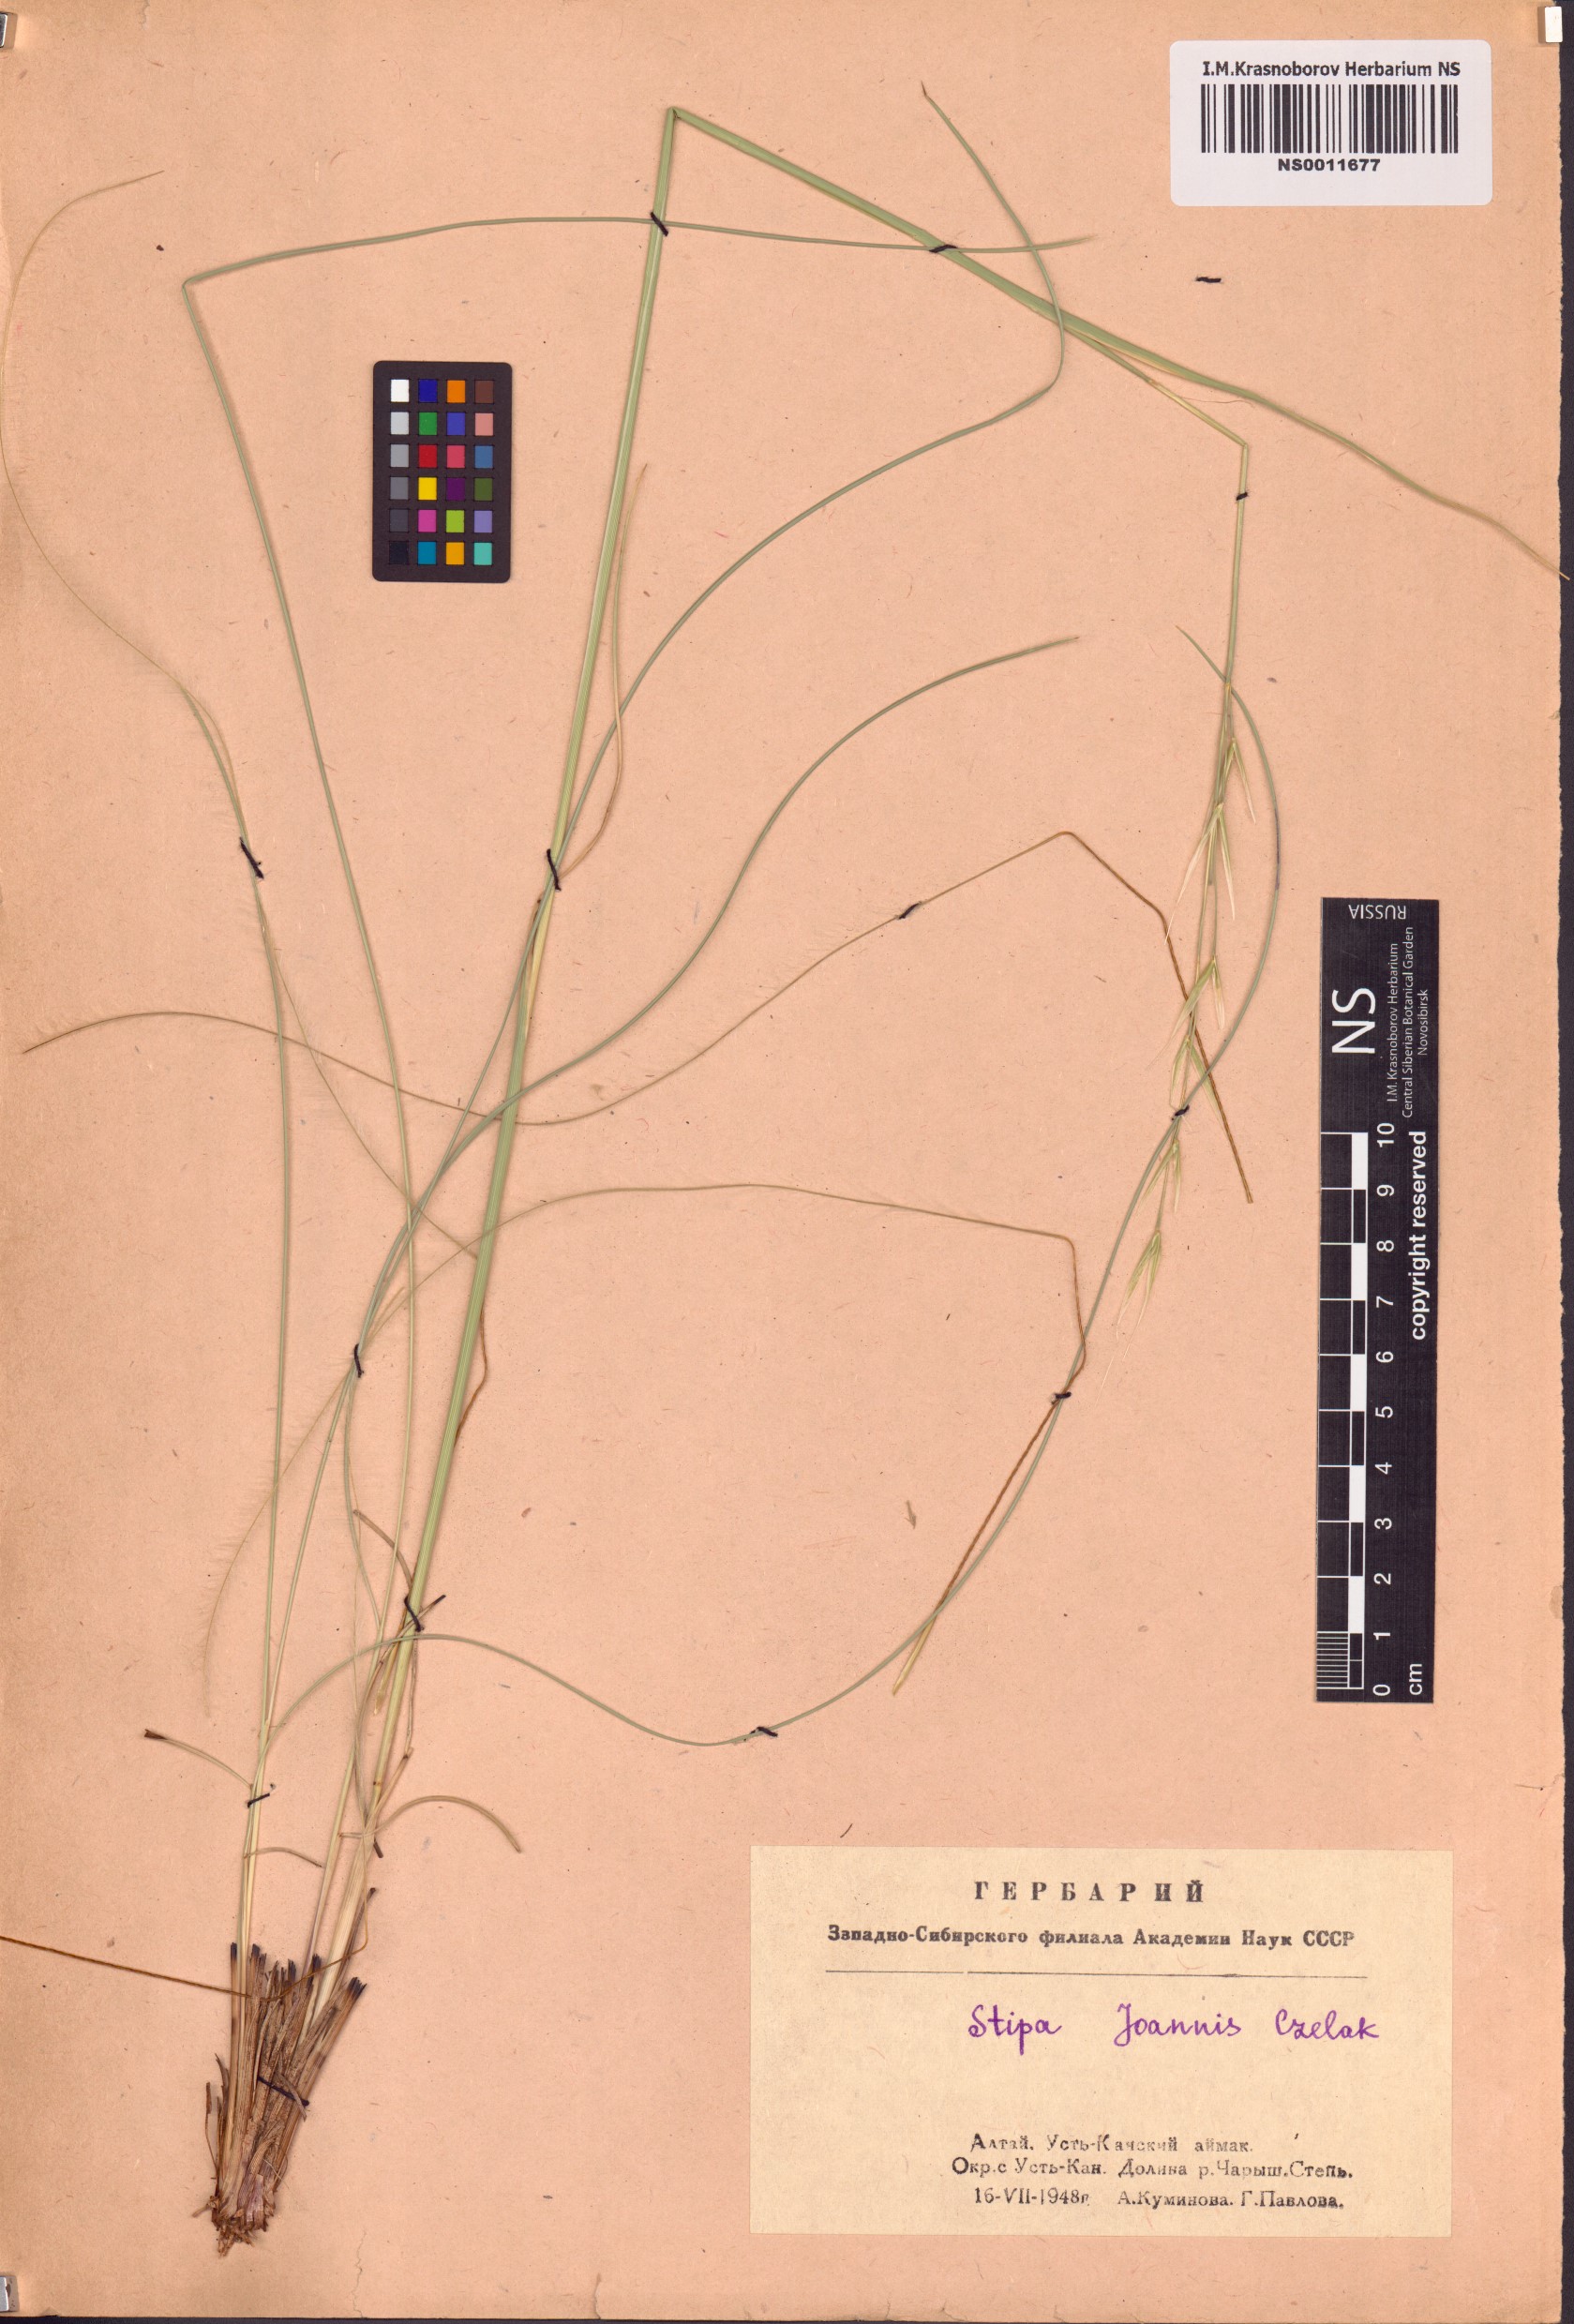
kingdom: Plantae
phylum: Tracheophyta
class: Liliopsida
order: Poales
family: Poaceae
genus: Stipa
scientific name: Stipa pennata
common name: European feather grass
